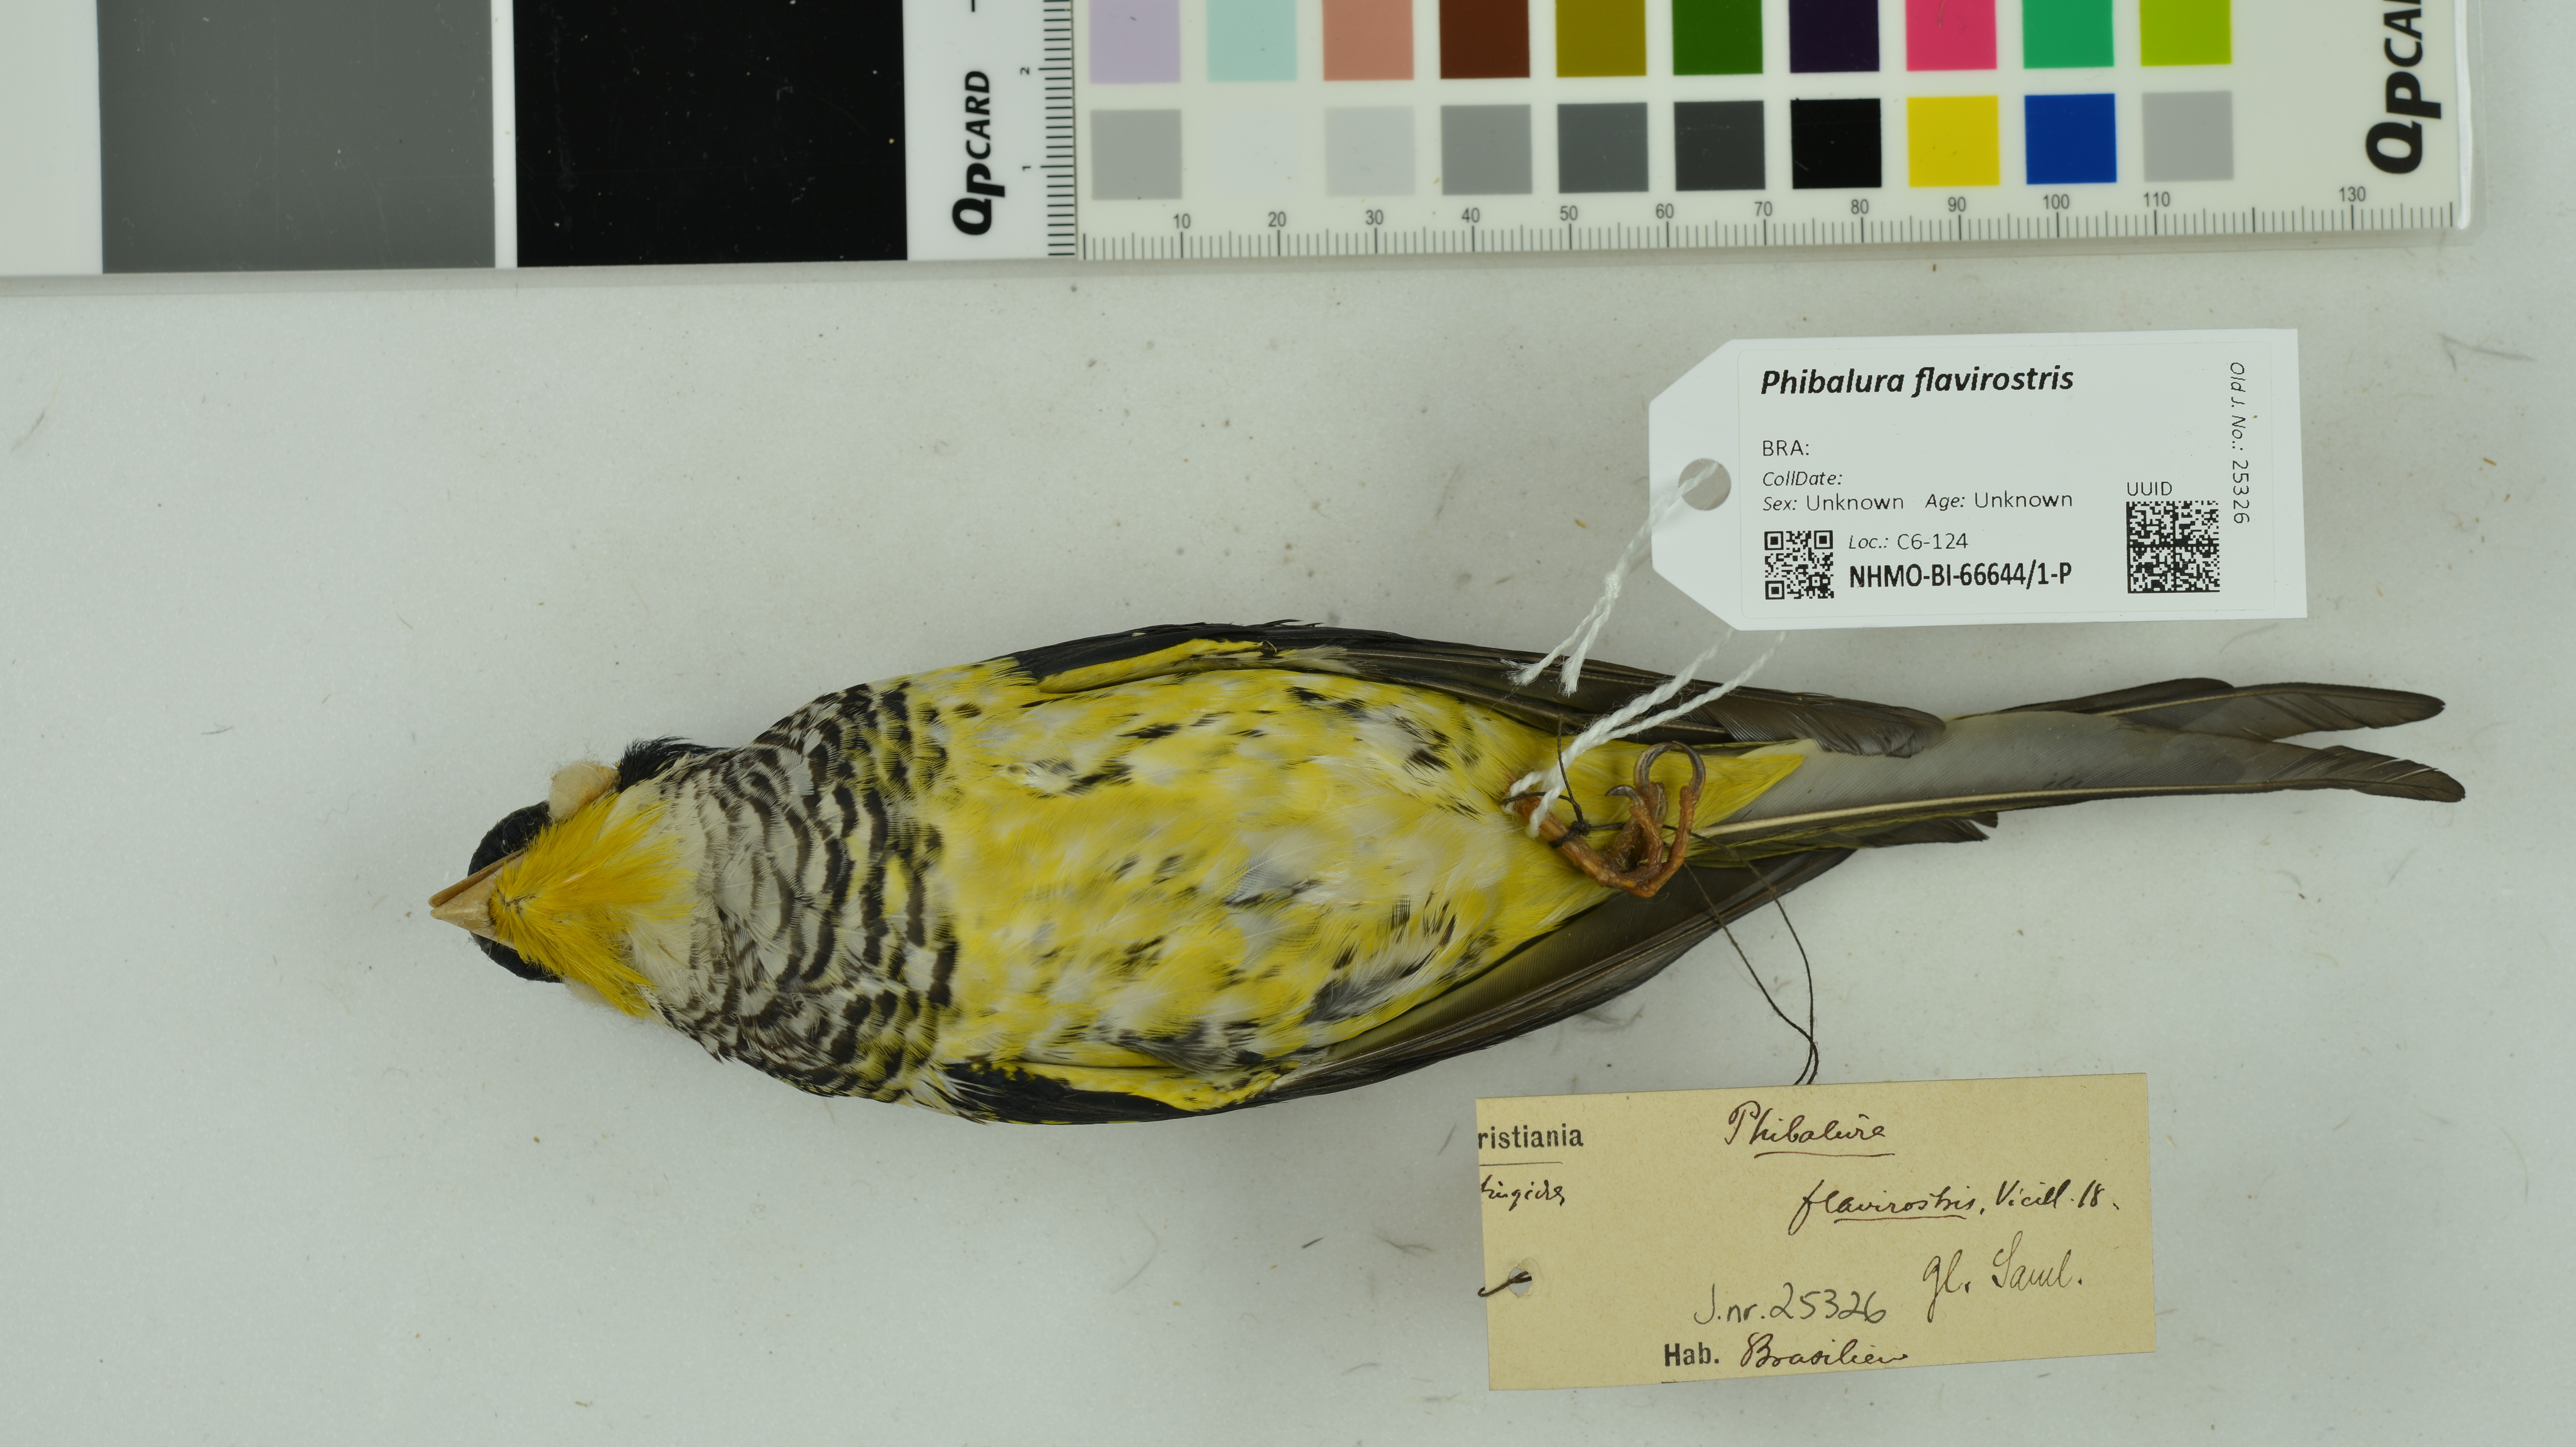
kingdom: Animalia
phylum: Chordata
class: Aves
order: Passeriformes
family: Cotingidae
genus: Phibalura
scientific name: Phibalura flavirostris
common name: Swallow-tailed cotinga
